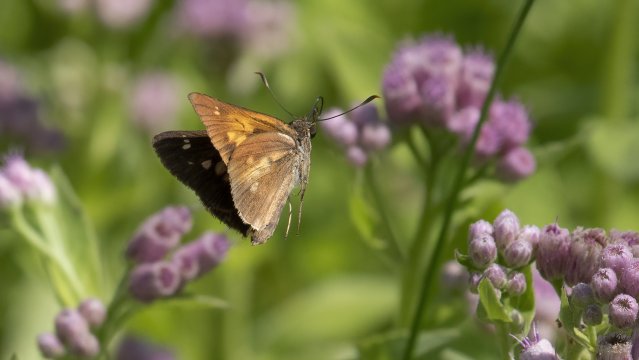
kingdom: Animalia
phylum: Arthropoda
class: Insecta
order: Lepidoptera
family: Hesperiidae
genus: Poanes
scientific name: Poanes viator
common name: Broad-winged Skipper
